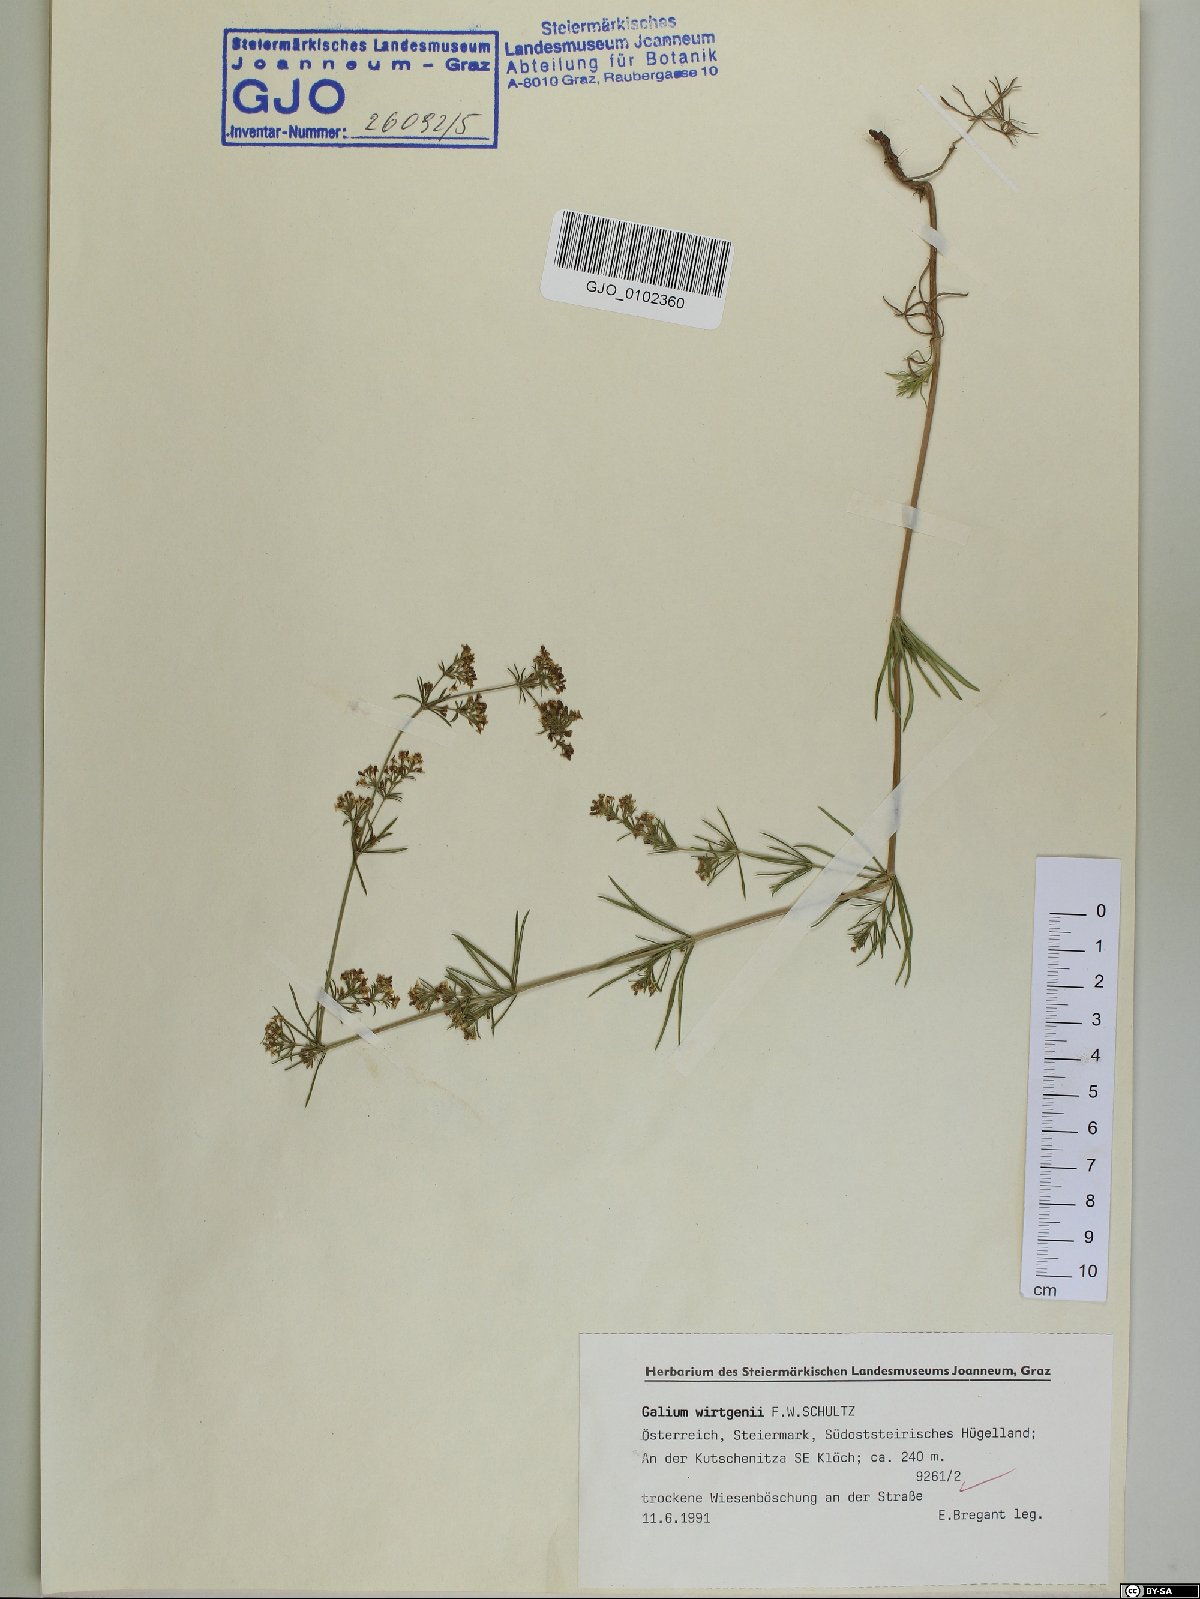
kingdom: Plantae
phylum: Tracheophyta
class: Magnoliopsida
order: Gentianales
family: Rubiaceae
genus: Galium
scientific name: Galium verum
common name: Lady's bedstraw
